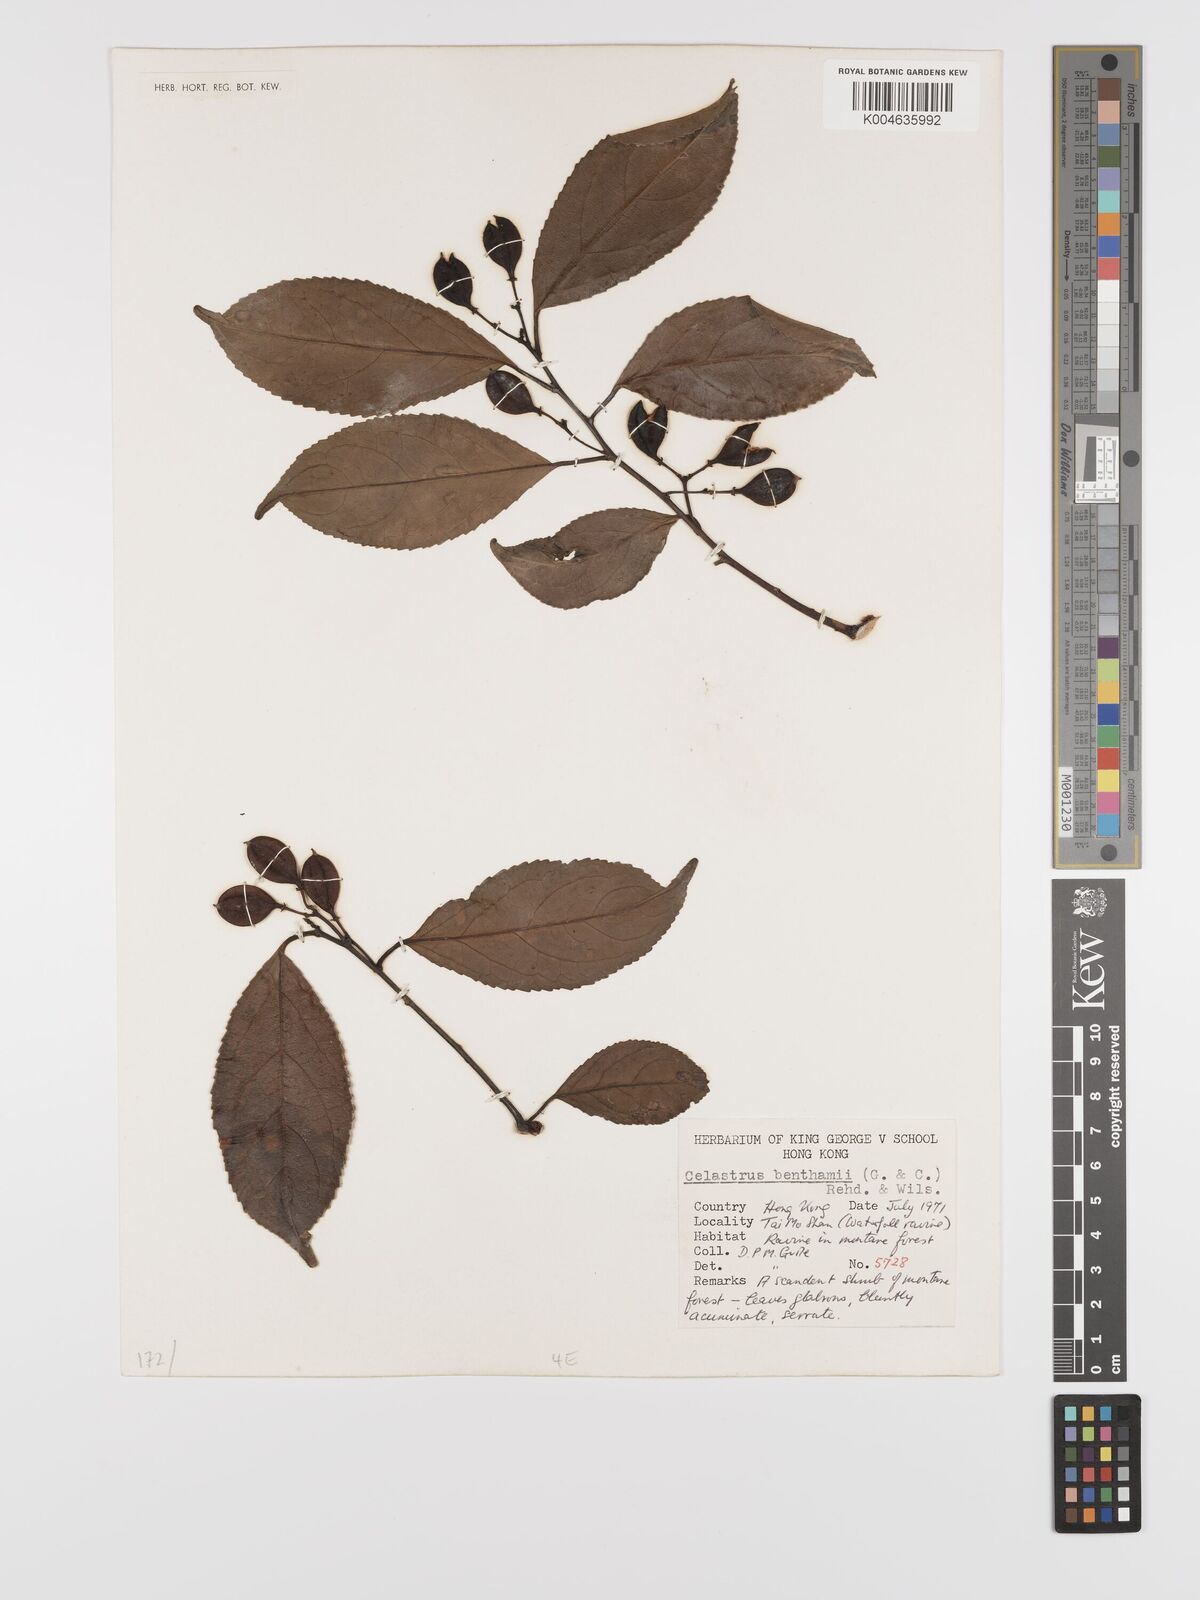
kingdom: Plantae
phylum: Tracheophyta
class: Magnoliopsida
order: Celastrales
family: Celastraceae
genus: Celastrus
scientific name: Celastrus monospermus
